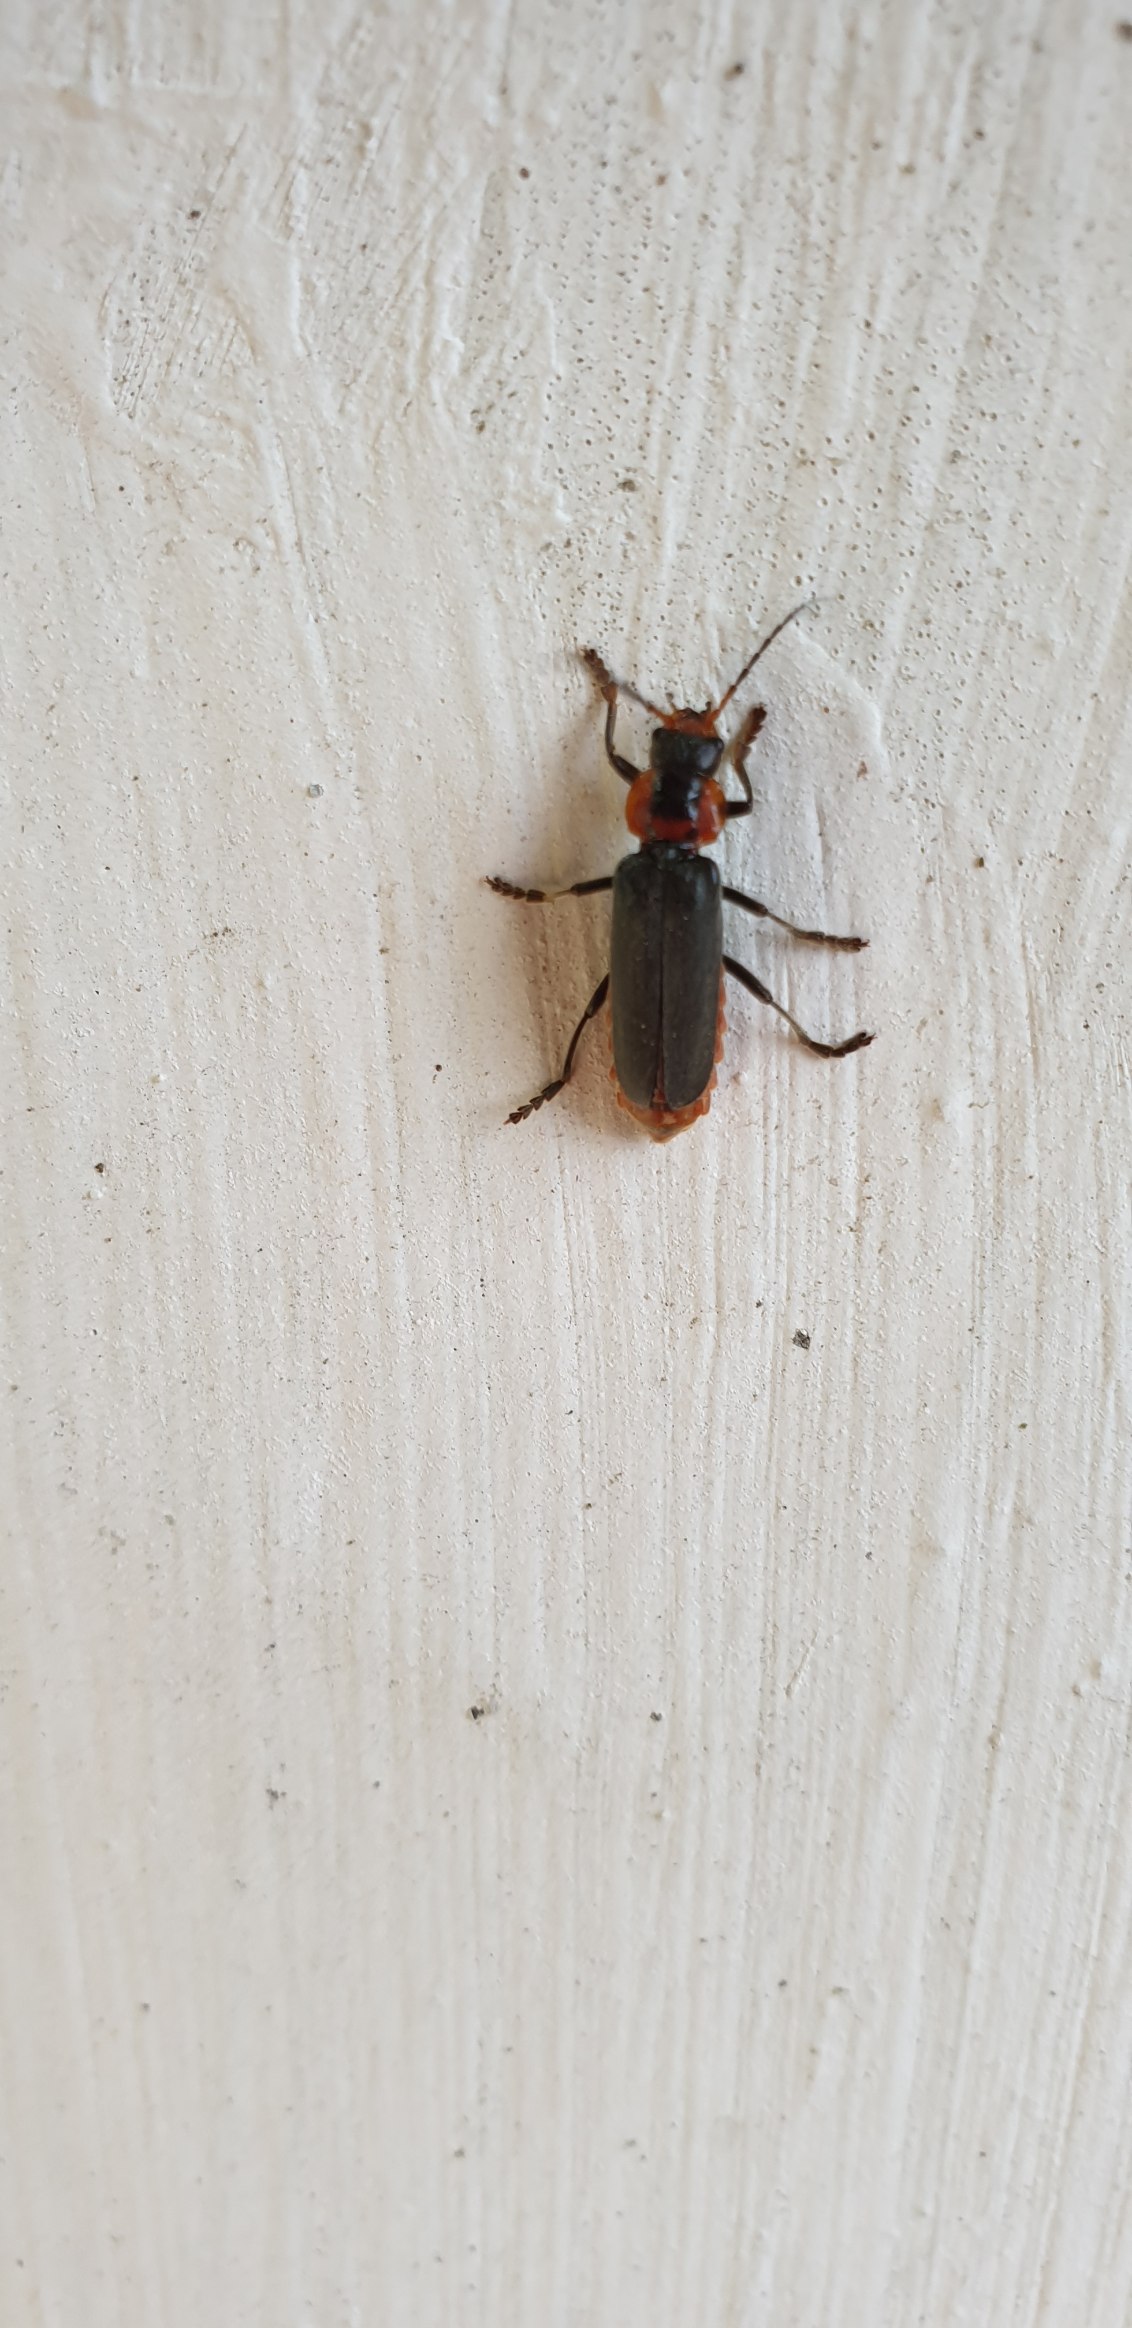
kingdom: Animalia
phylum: Arthropoda
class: Insecta
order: Coleoptera
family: Cantharidae
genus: Cantharis
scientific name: Cantharis fusca
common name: Stor blødvinge
